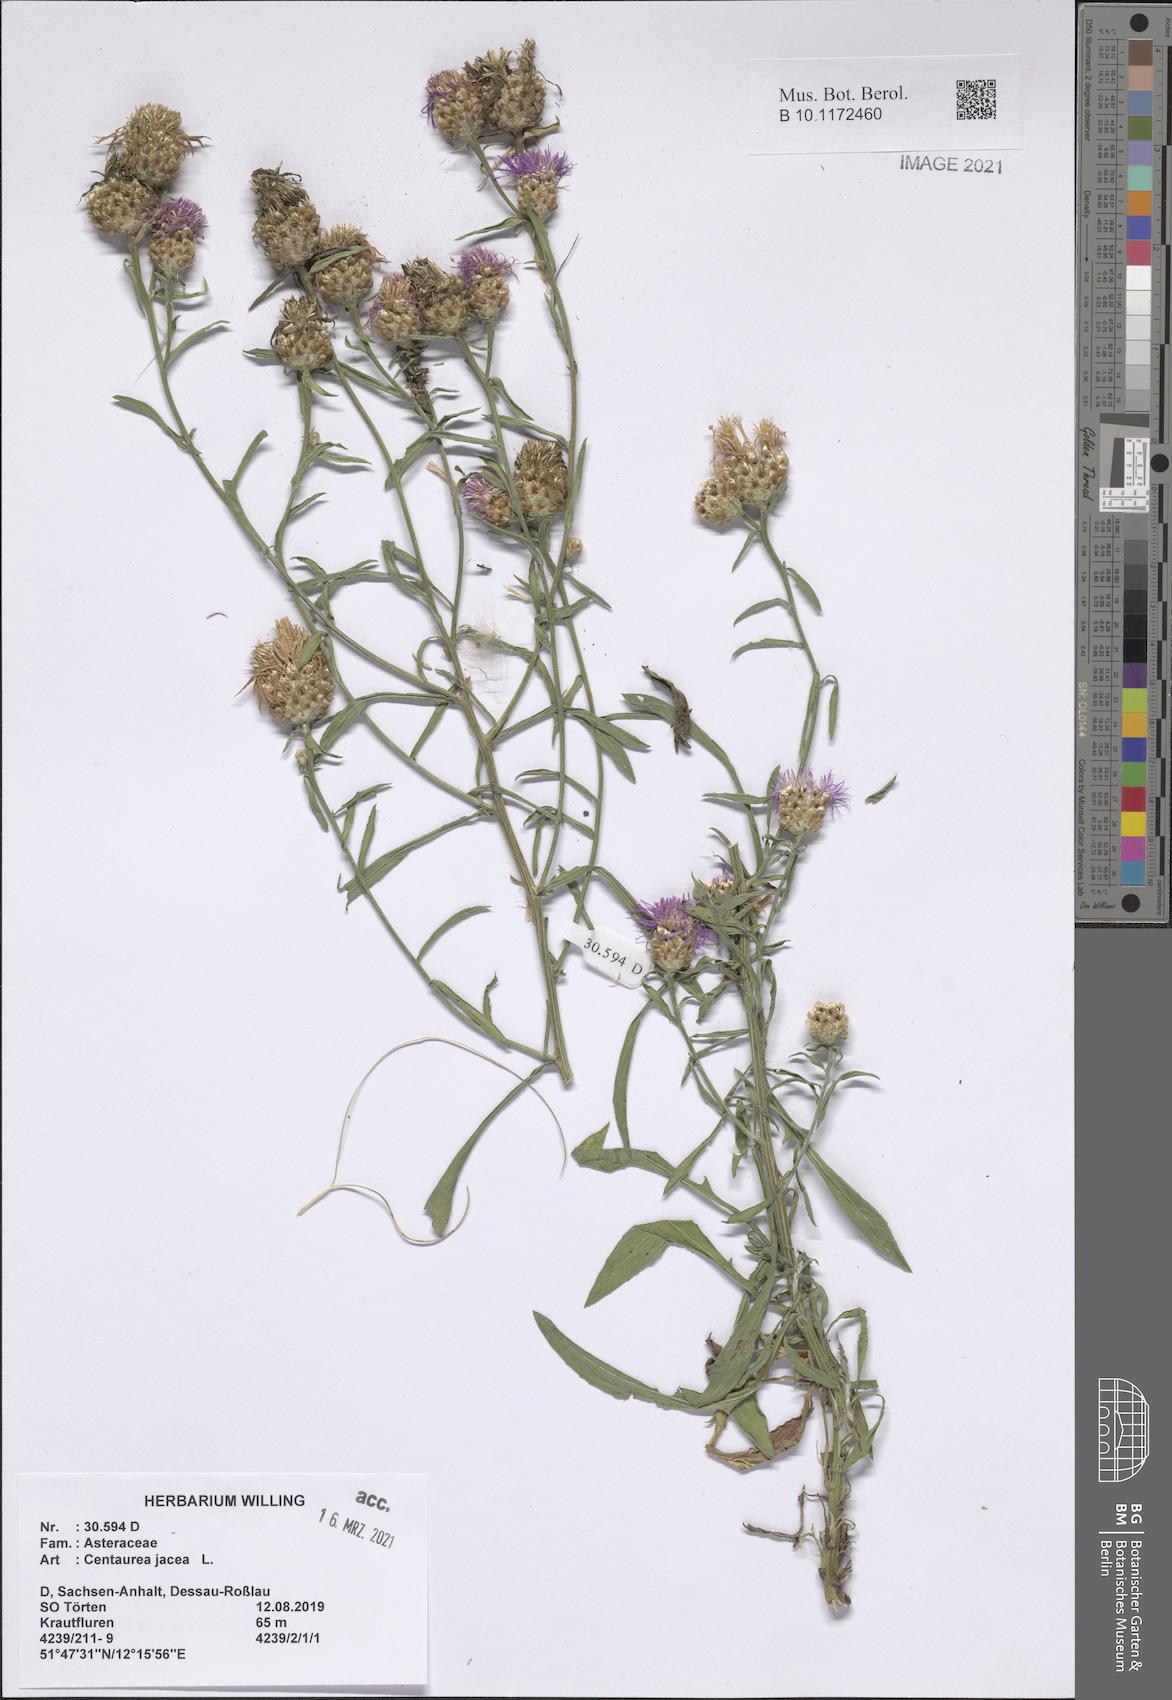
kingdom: Plantae
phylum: Tracheophyta
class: Magnoliopsida
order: Asterales
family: Asteraceae
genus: Centaurea
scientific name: Centaurea jacea
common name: Brown knapweed
